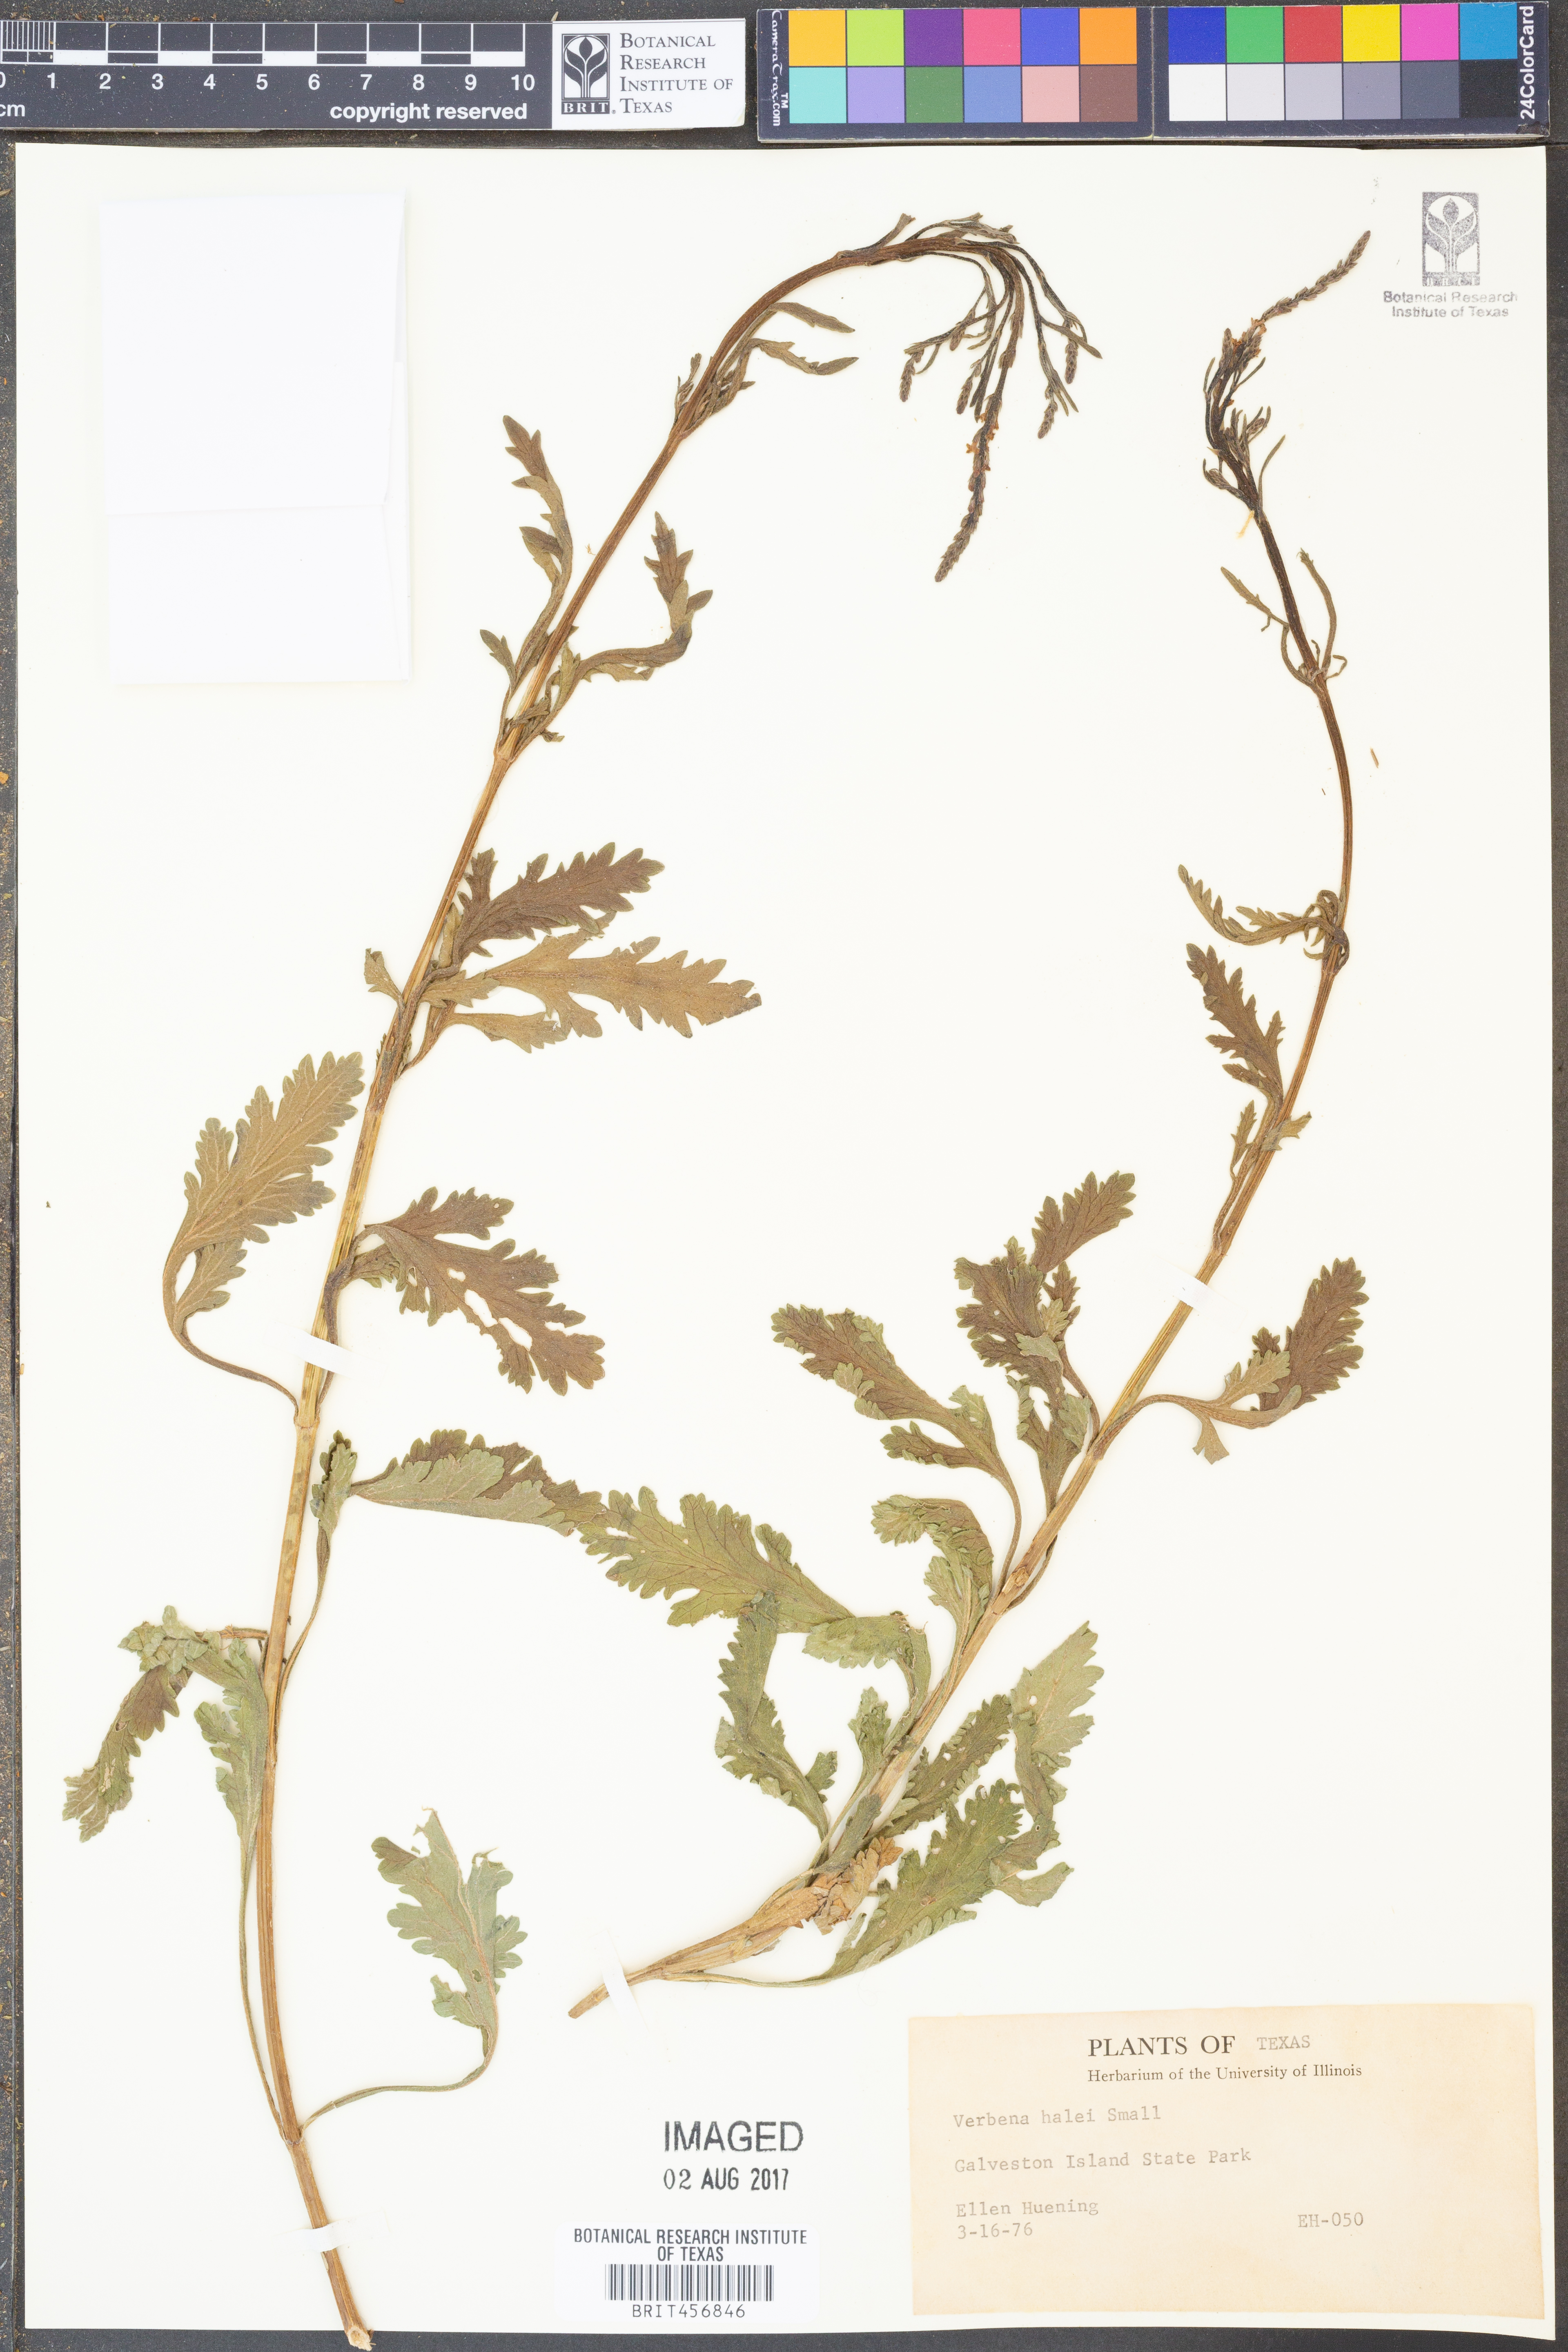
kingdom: Plantae
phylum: Tracheophyta
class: Magnoliopsida
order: Lamiales
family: Verbenaceae
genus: Verbena
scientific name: Verbena halei
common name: Texas vervain
